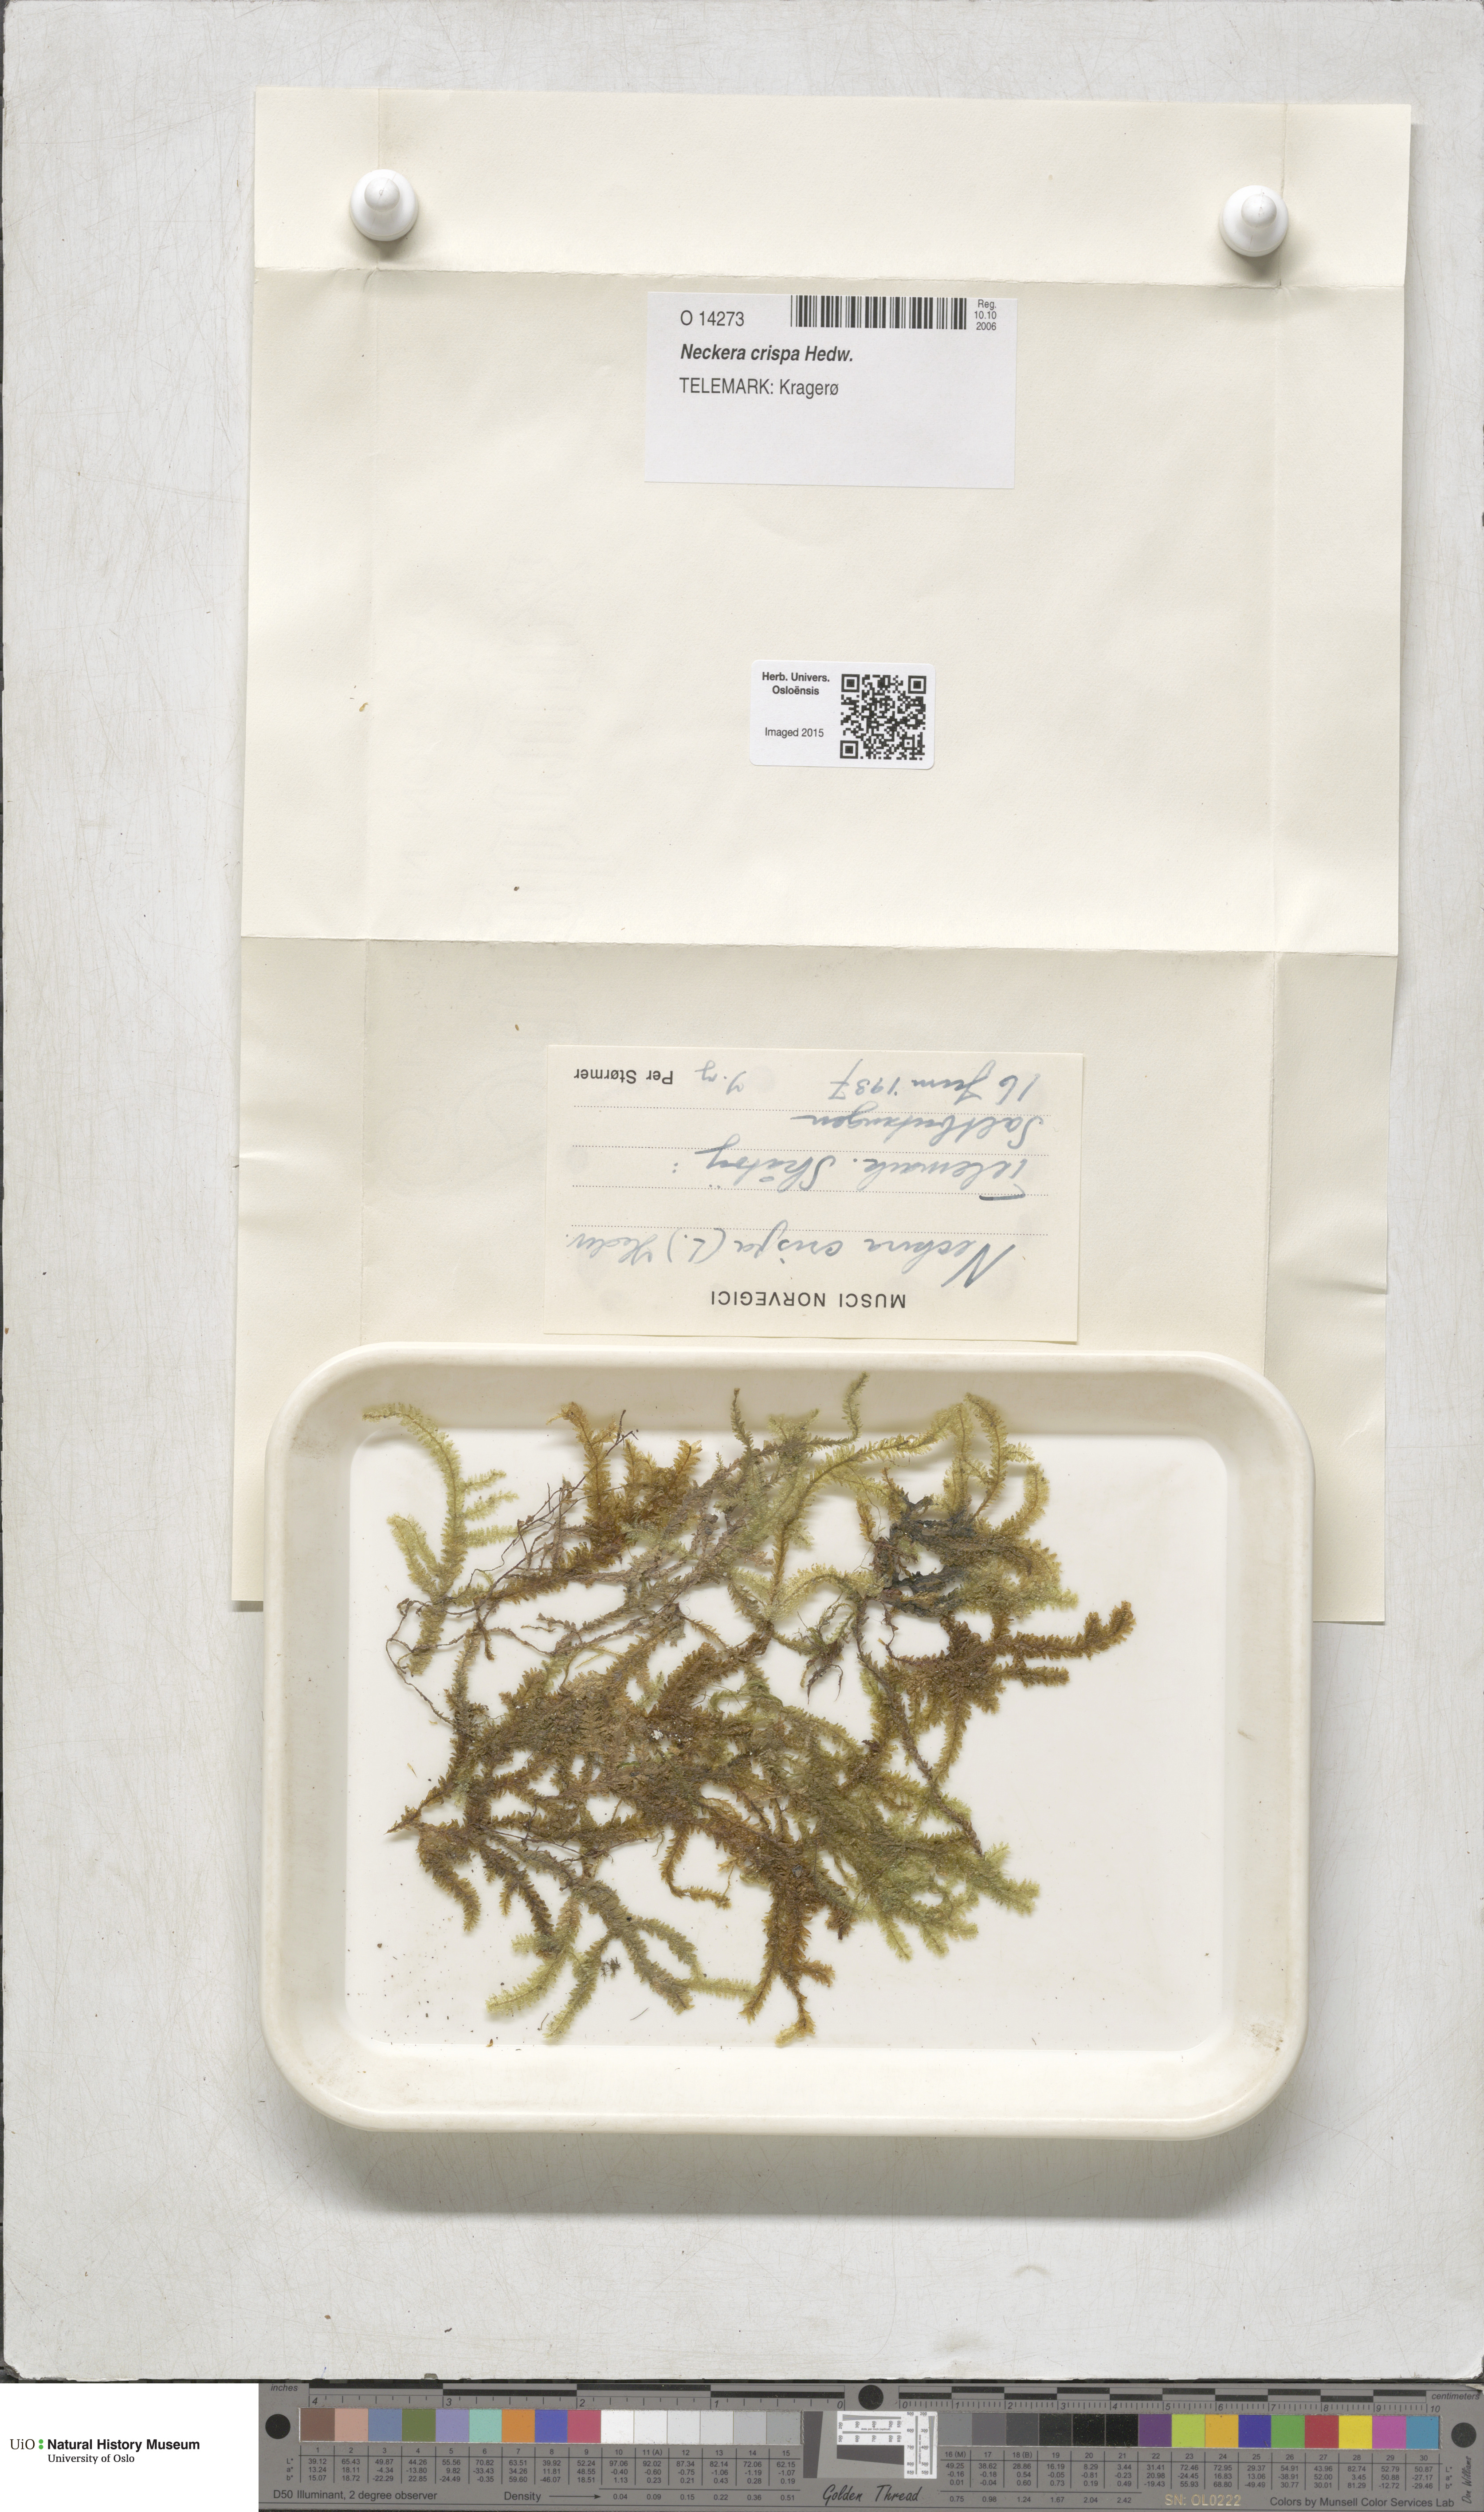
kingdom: Plantae
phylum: Bryophyta
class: Bryopsida
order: Hypnales
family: Neckeraceae
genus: Exsertotheca
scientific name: Exsertotheca crispa
